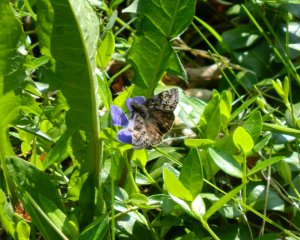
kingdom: Animalia
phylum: Arthropoda
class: Insecta
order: Lepidoptera
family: Hesperiidae
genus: Gesta
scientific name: Gesta
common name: Juvenal's Duskywing
